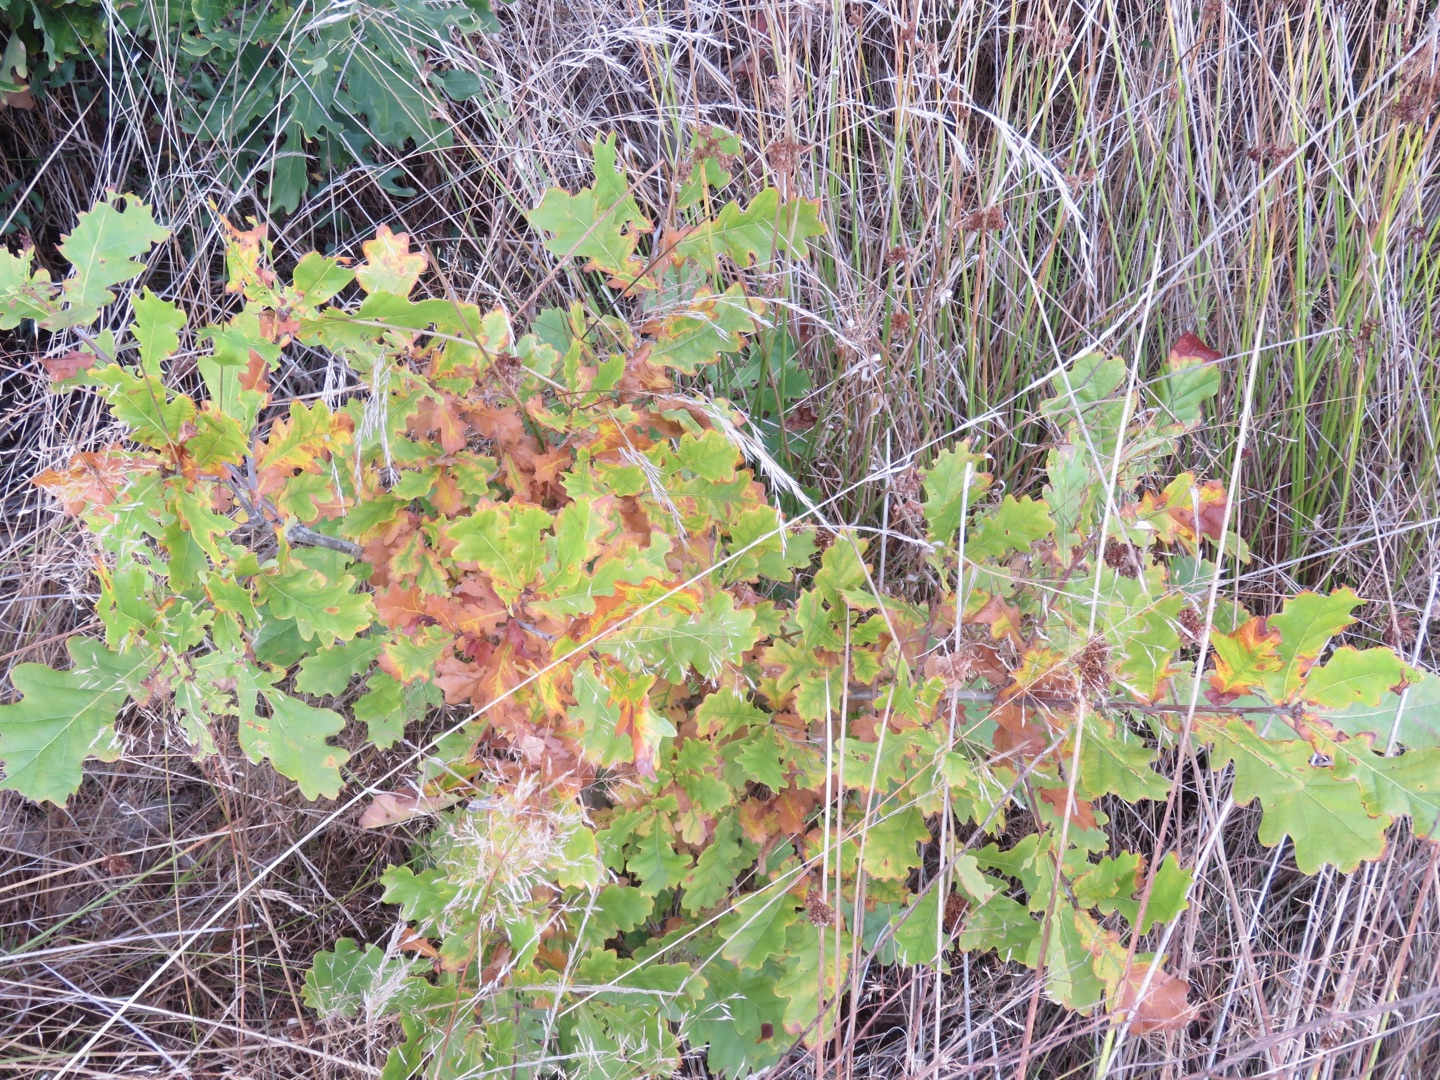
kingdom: Plantae
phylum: Tracheophyta
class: Magnoliopsida
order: Fagales
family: Fagaceae
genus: Quercus
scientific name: Quercus robur
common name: Stilk-eg/almindelig eg
